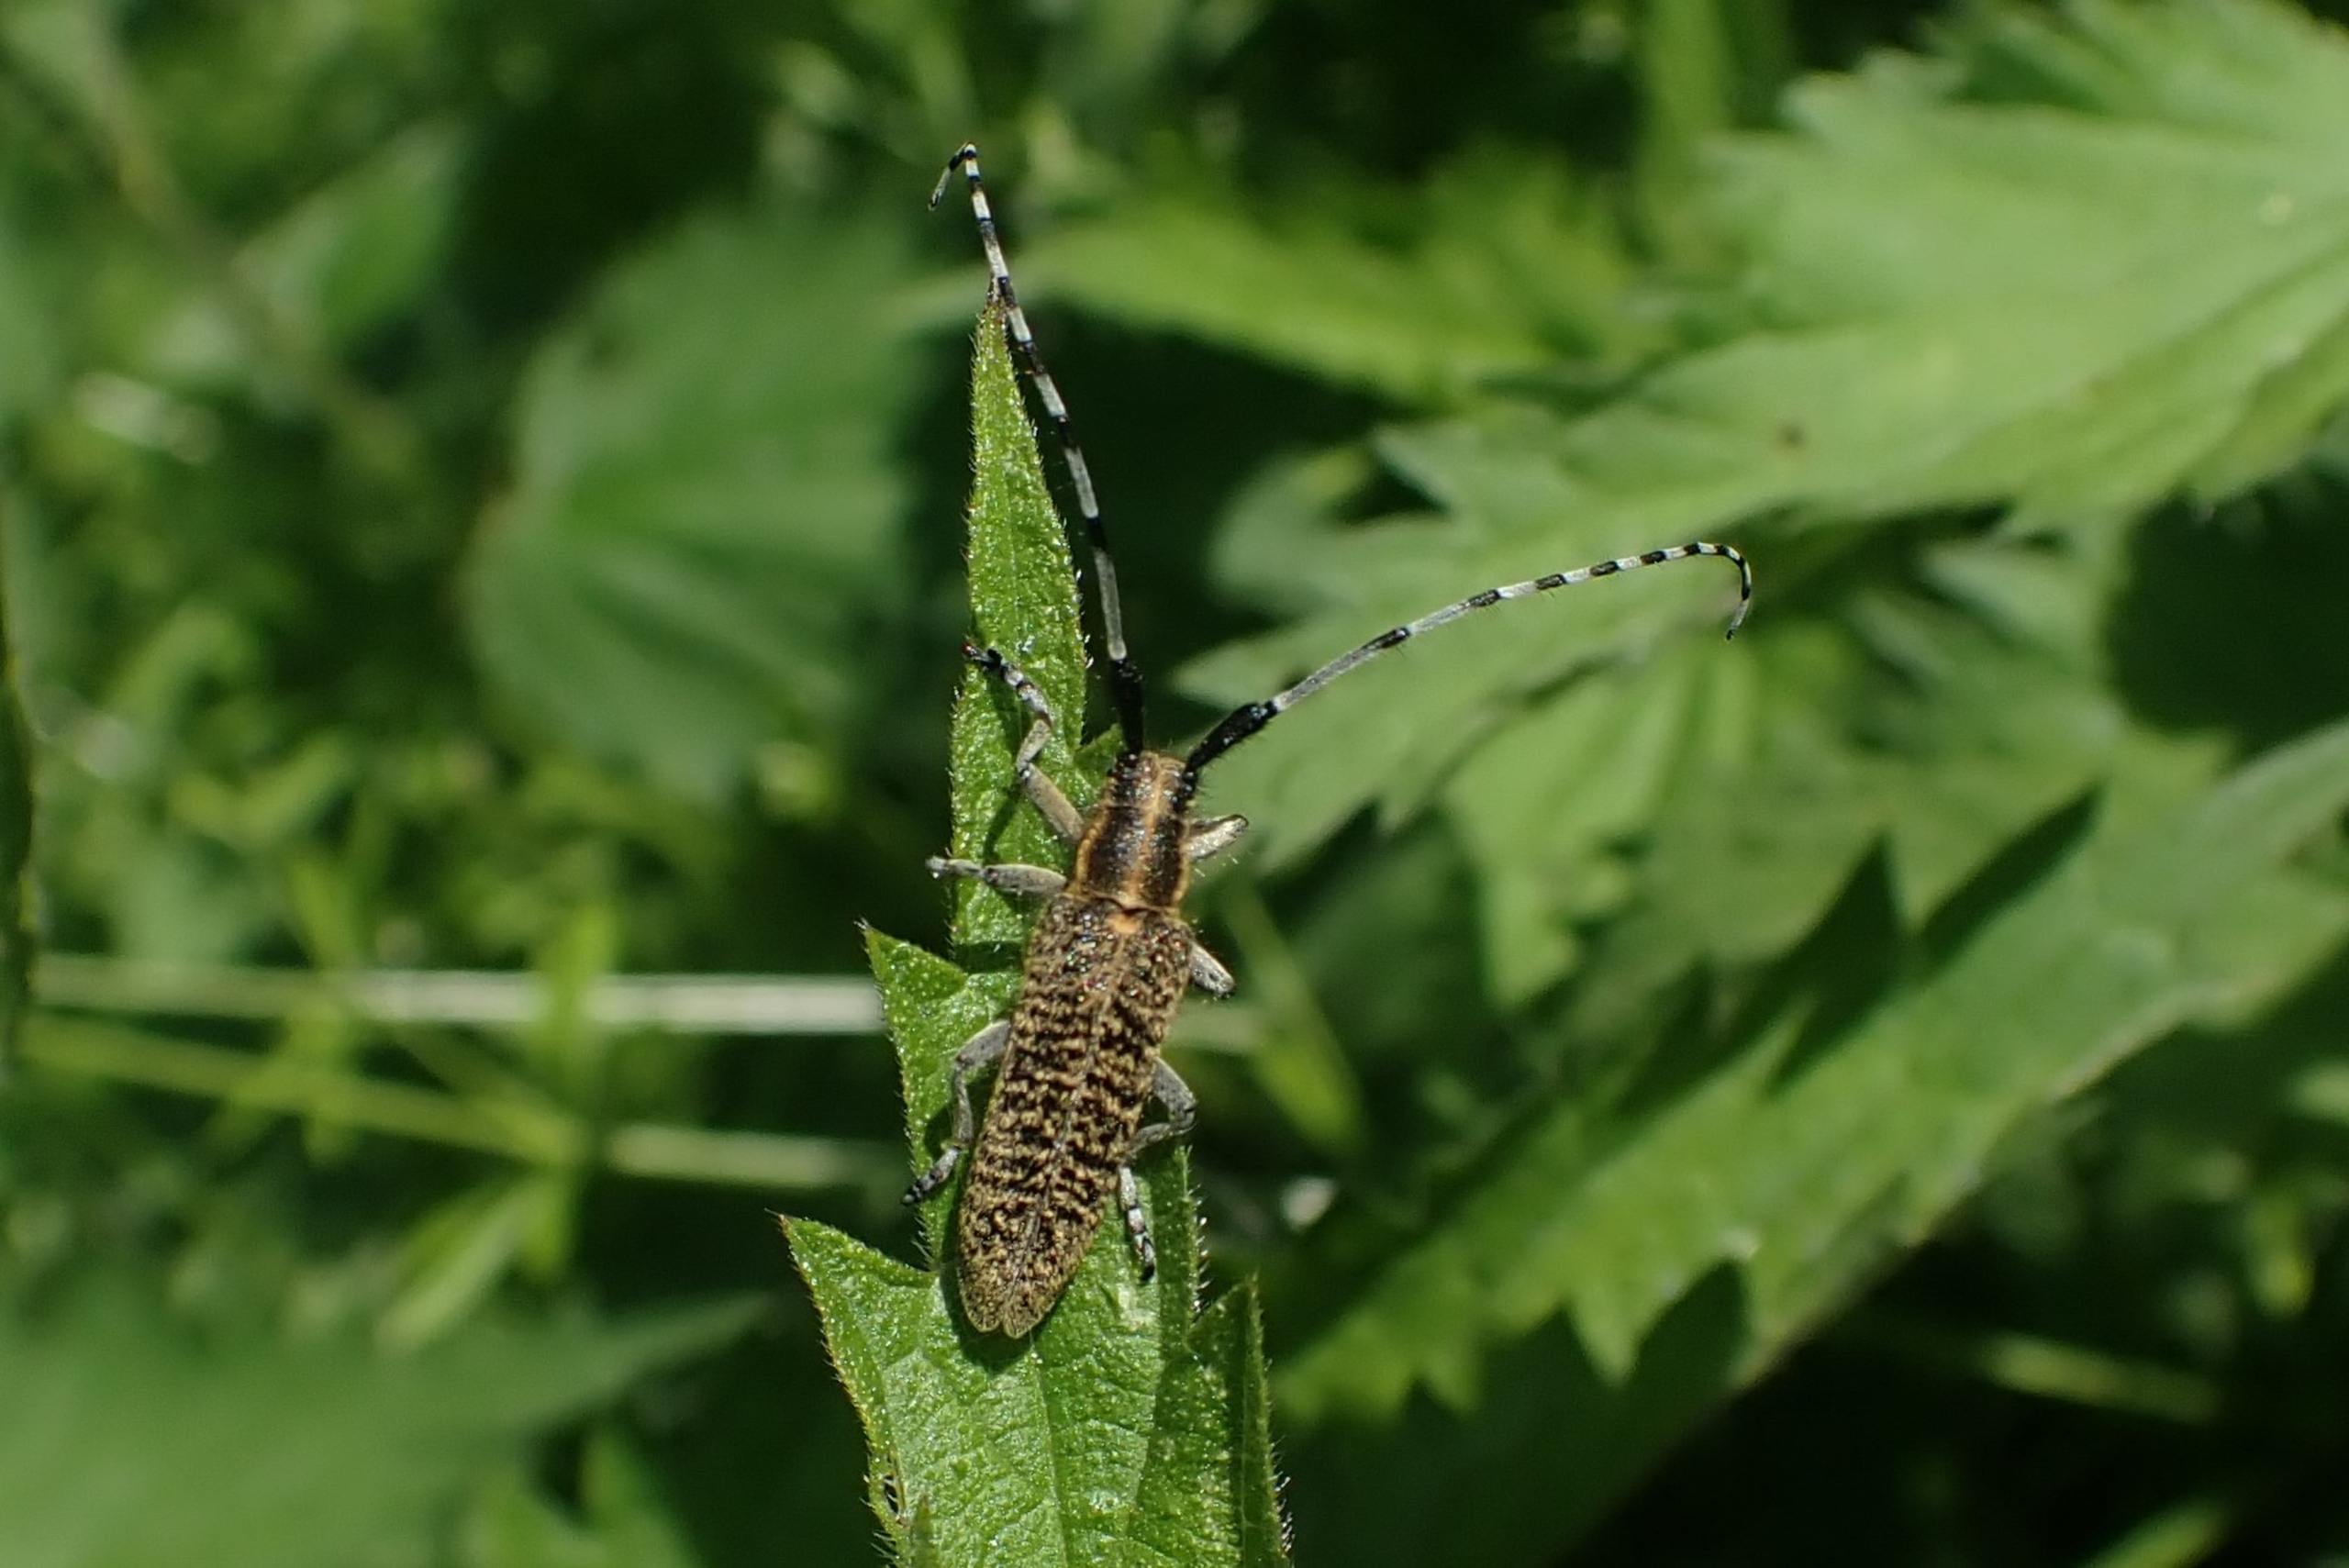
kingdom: Animalia
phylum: Arthropoda
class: Insecta
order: Coleoptera
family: Cerambycidae
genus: Agapanthia
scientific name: Agapanthia villosoviridescens
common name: Tidselbuk
